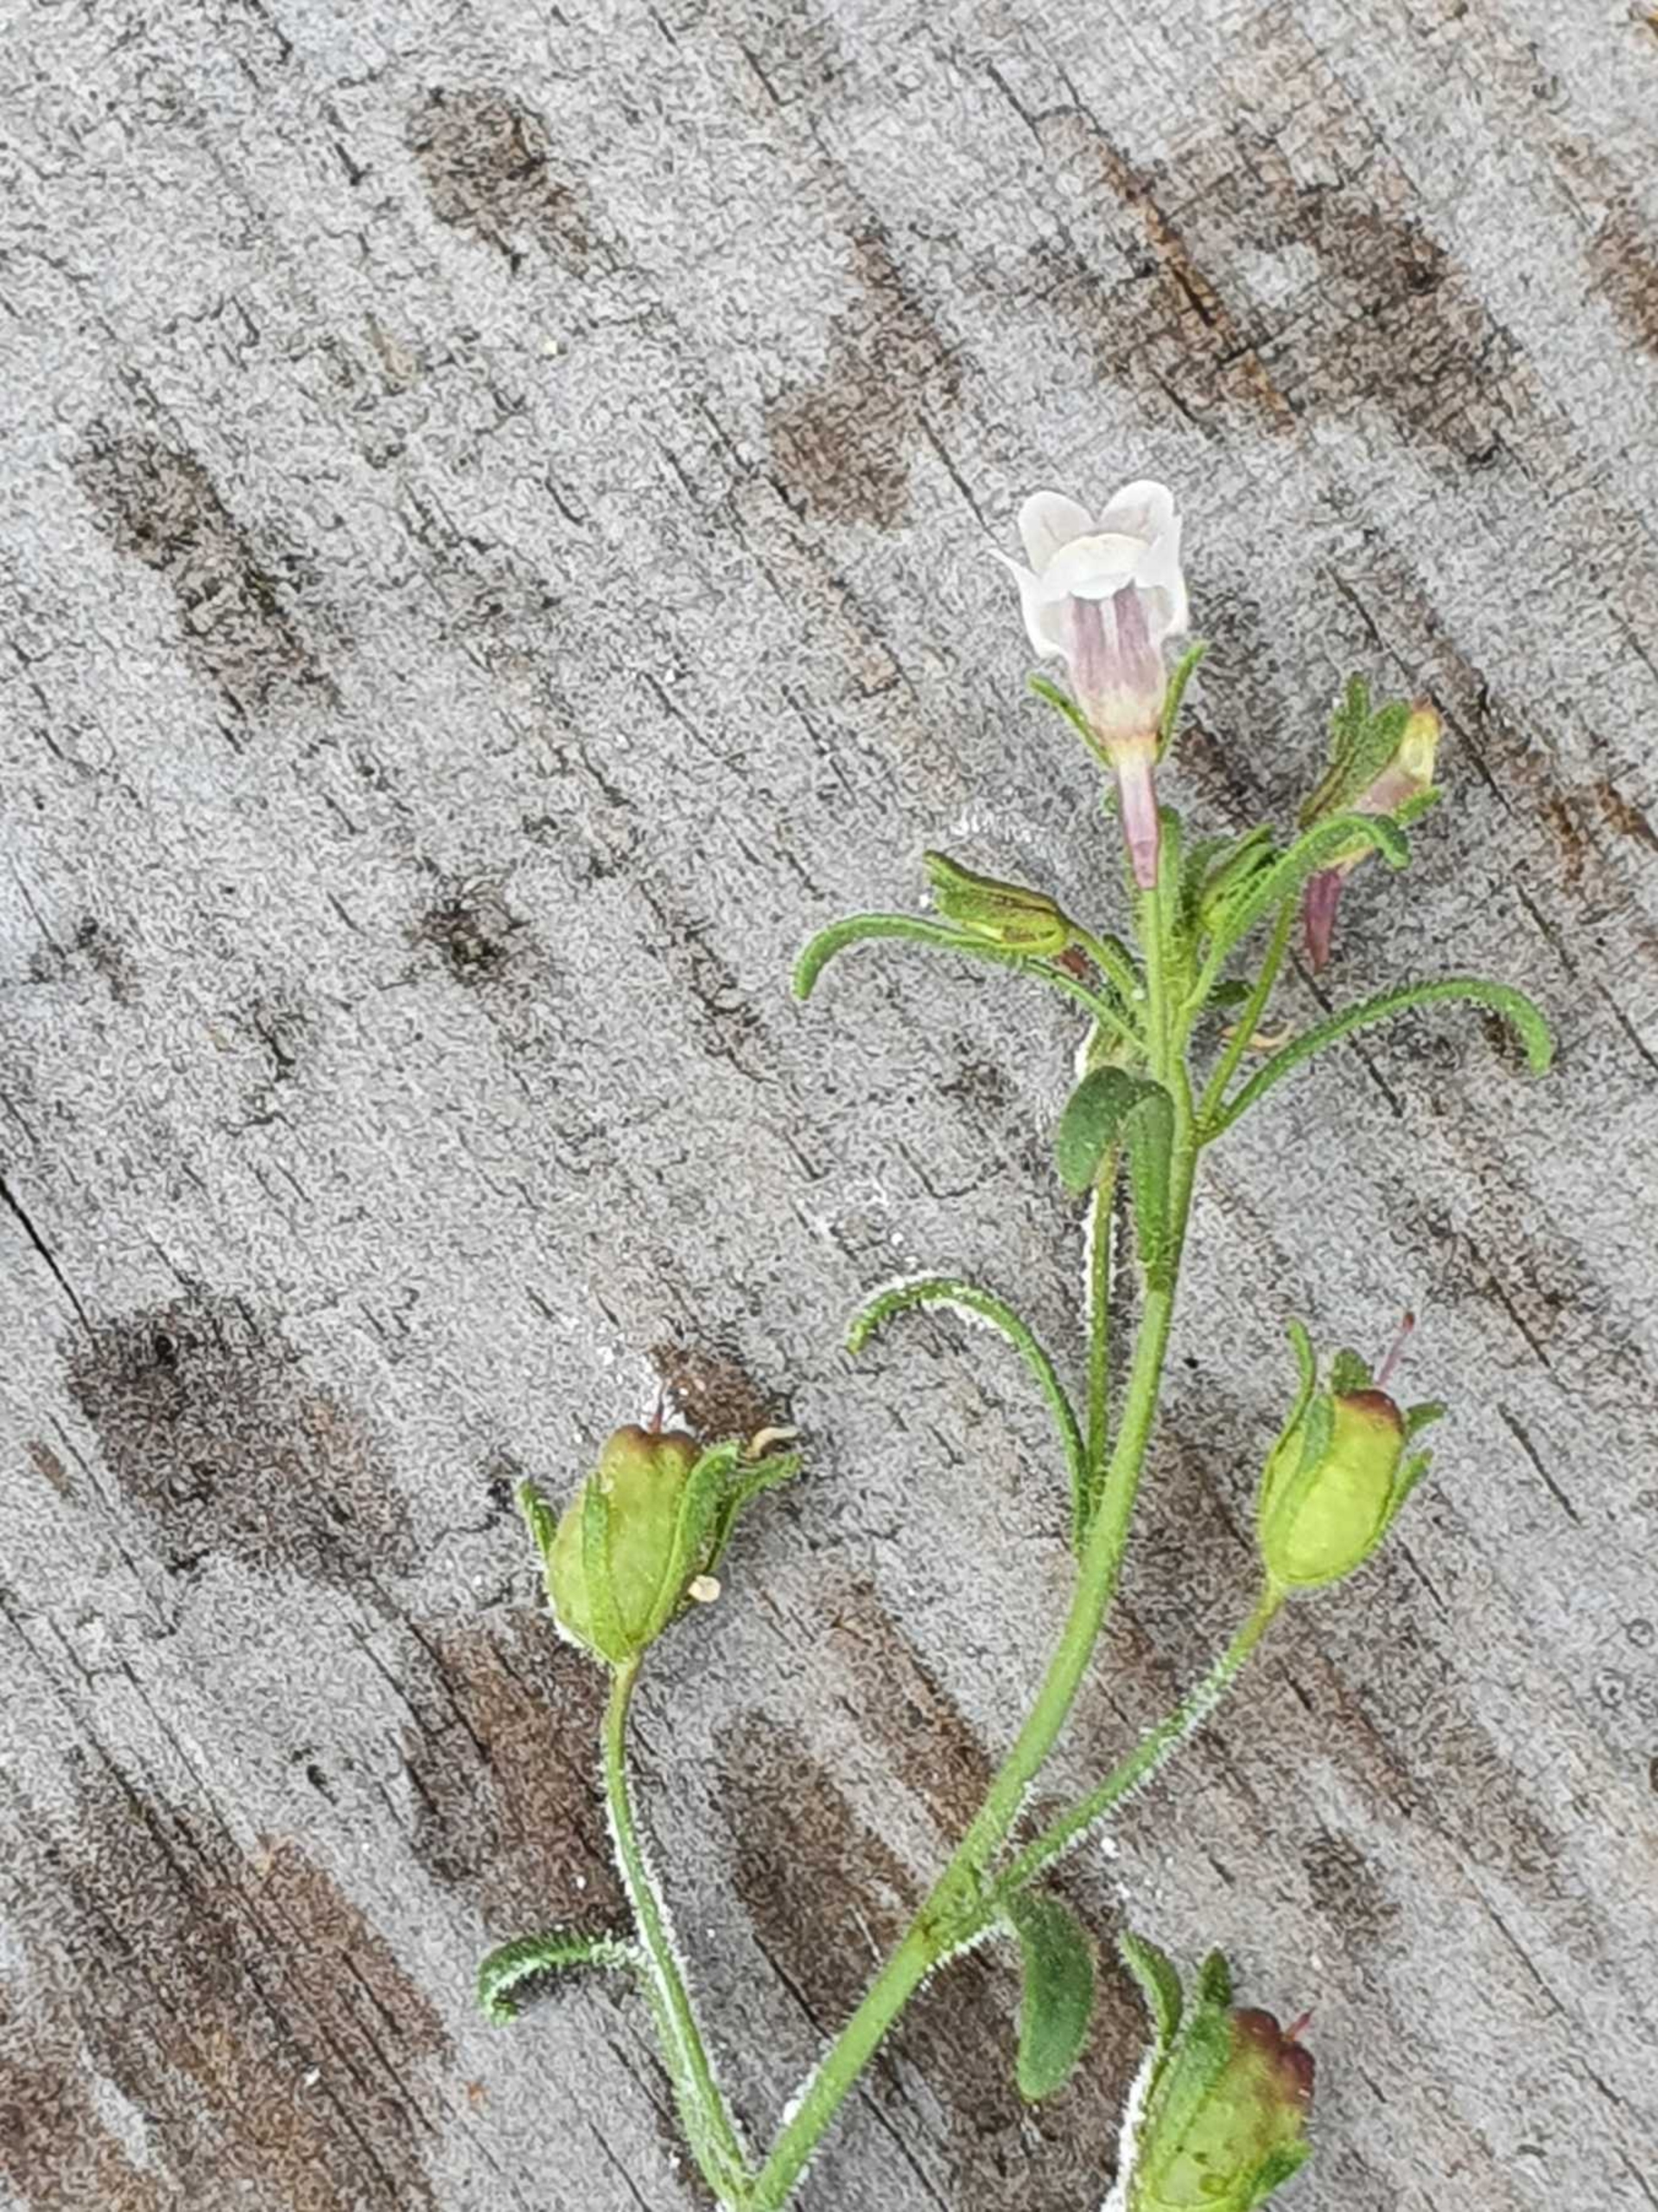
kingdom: Plantae
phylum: Tracheophyta
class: Magnoliopsida
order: Lamiales
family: Plantaginaceae
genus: Chaenorhinum
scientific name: Chaenorhinum minus
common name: Liden torskemund
